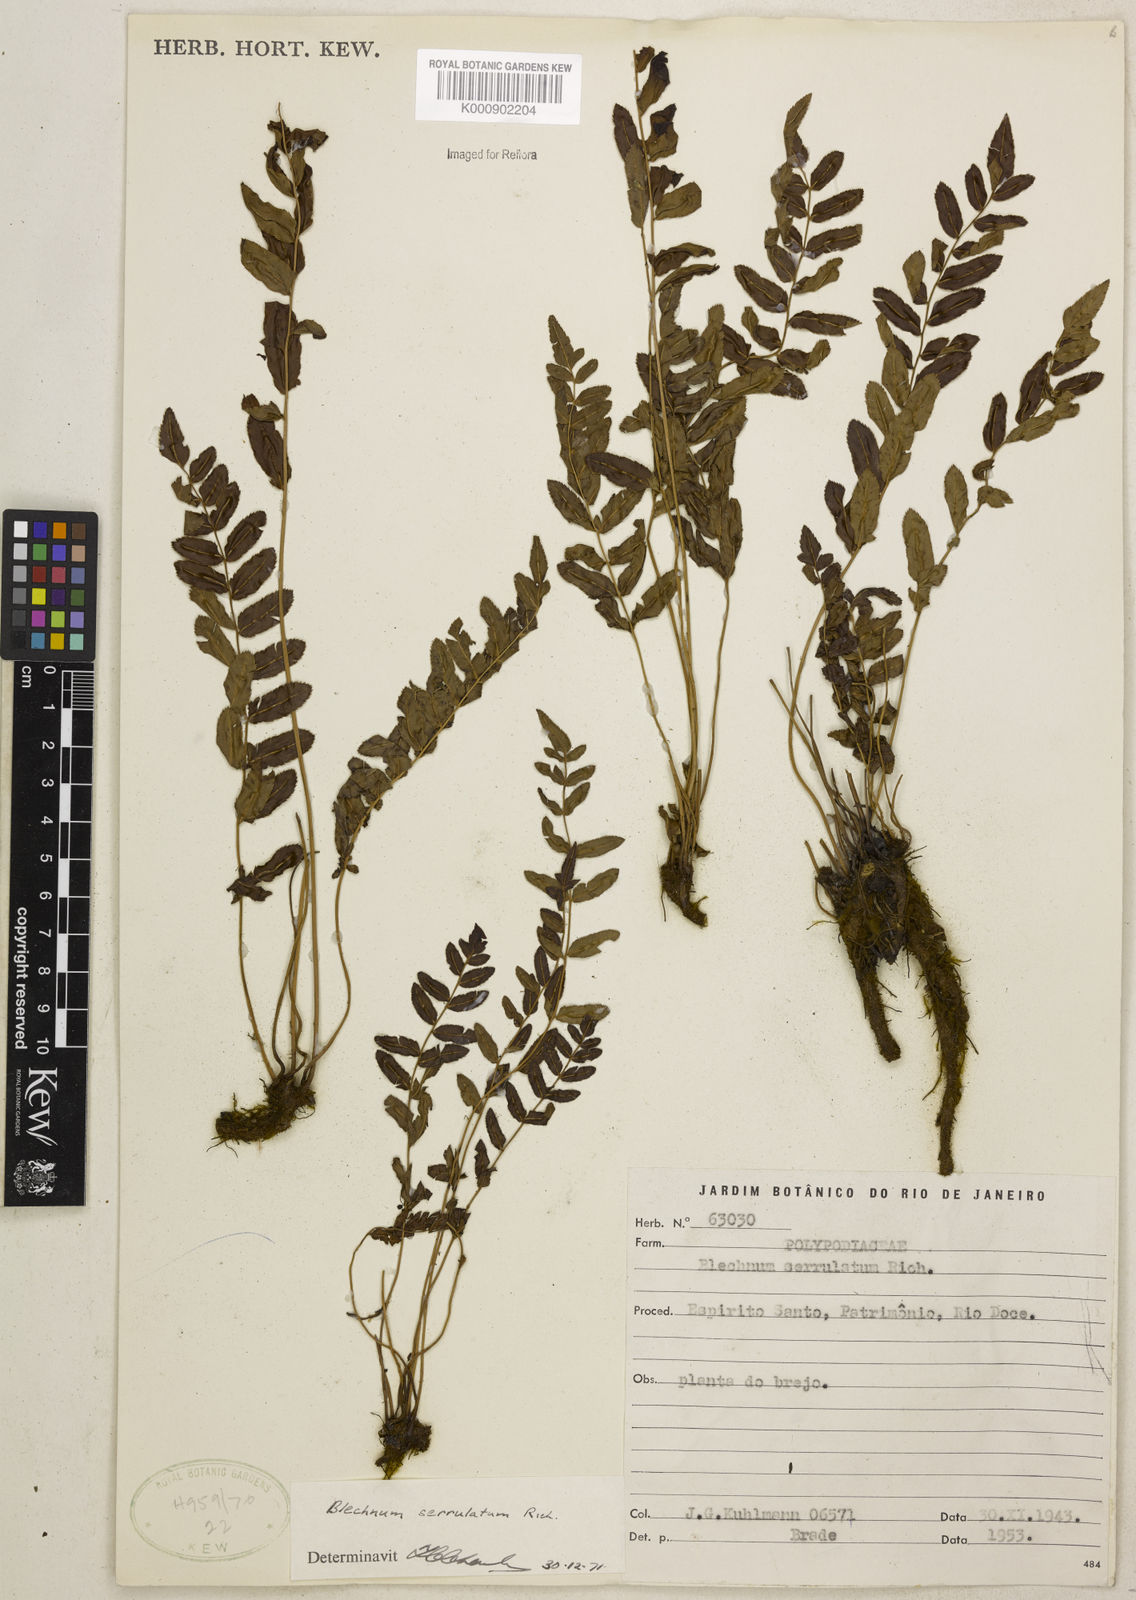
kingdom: Plantae
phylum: Tracheophyta
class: Polypodiopsida
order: Polypodiales
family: Blechnaceae
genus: Telmatoblechnum
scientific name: Telmatoblechnum serrulatum
